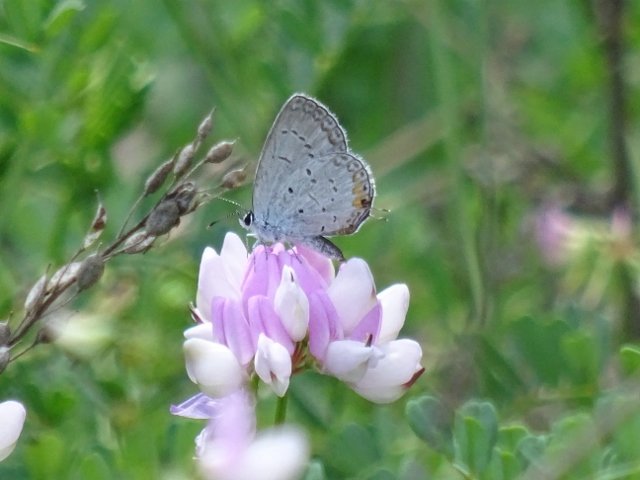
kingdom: Animalia
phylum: Arthropoda
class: Insecta
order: Lepidoptera
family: Lycaenidae
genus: Elkalyce
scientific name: Elkalyce comyntas
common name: Eastern Tailed-Blue
